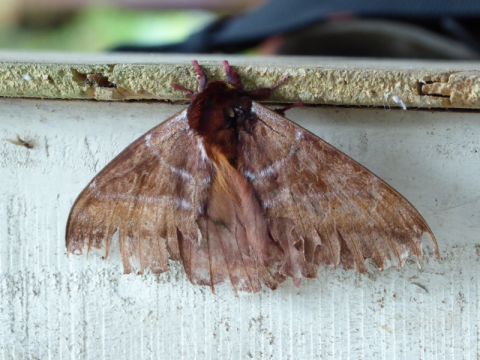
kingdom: Animalia
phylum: Arthropoda
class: Insecta
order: Lepidoptera
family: Hesperiidae
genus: Mylon
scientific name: Mylon pelopidas
